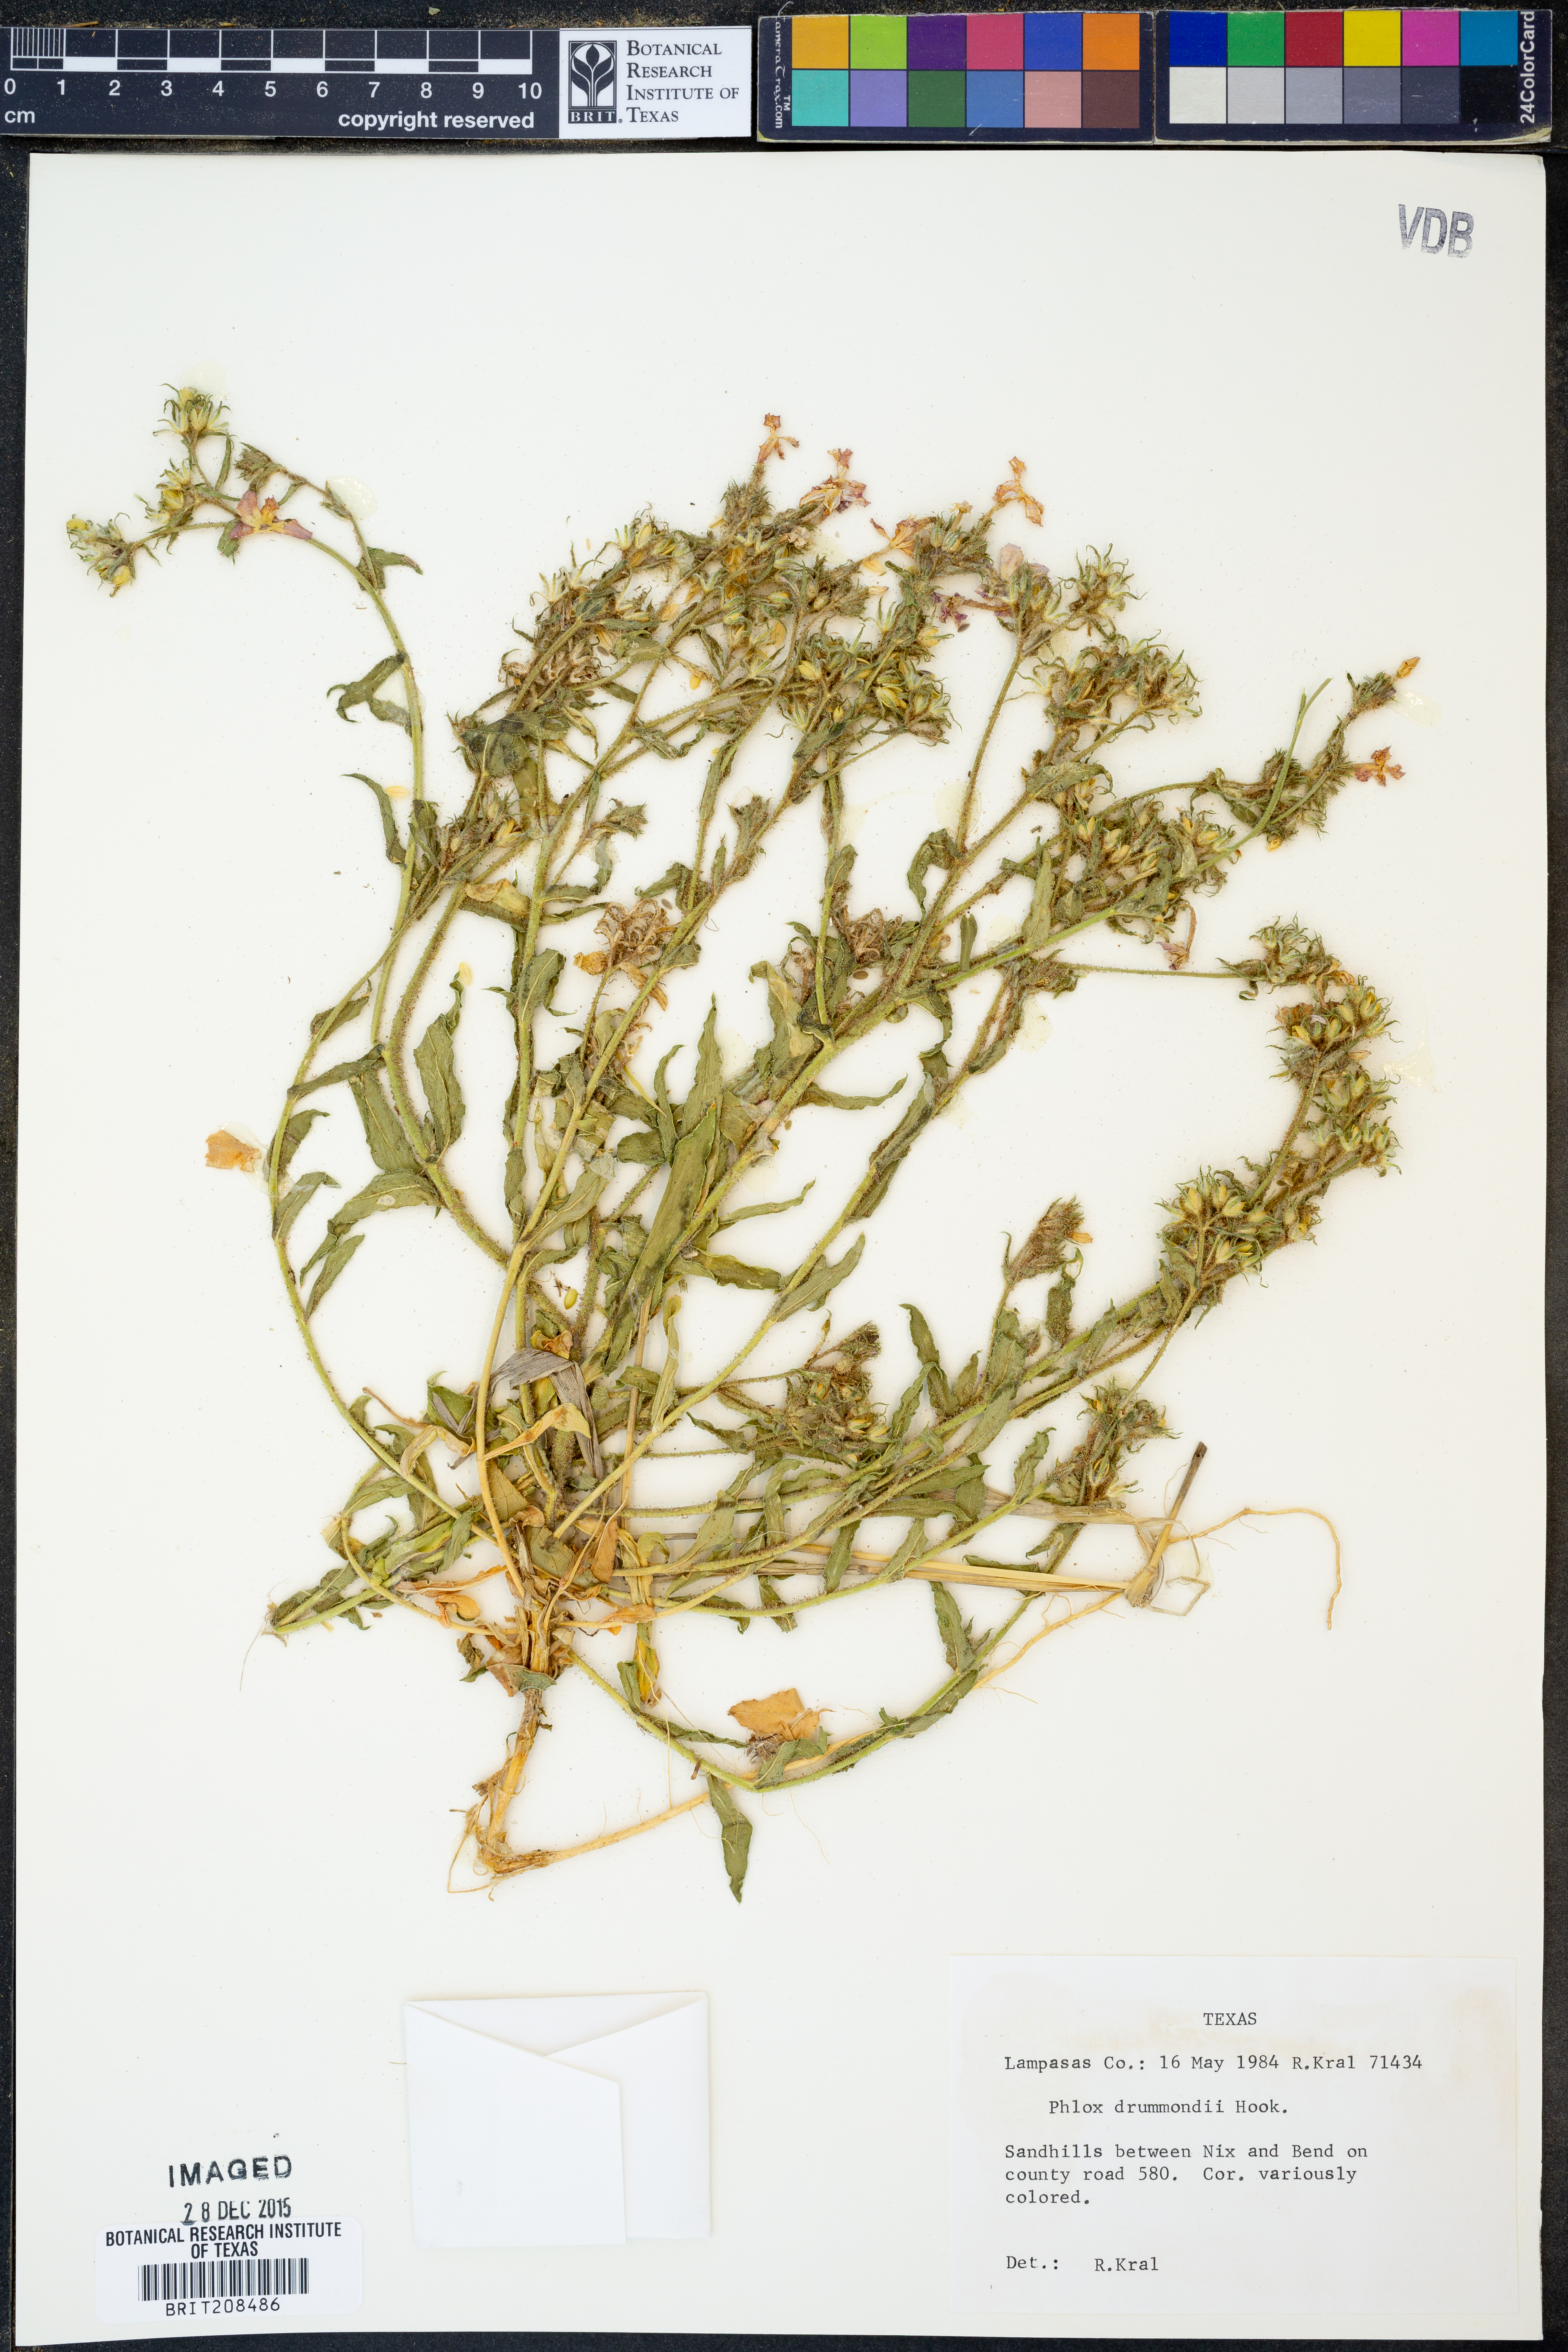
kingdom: Plantae
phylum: Tracheophyta
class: Magnoliopsida
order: Ericales
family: Polemoniaceae
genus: Phlox
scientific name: Phlox drummondii
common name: Drummond's phlox
